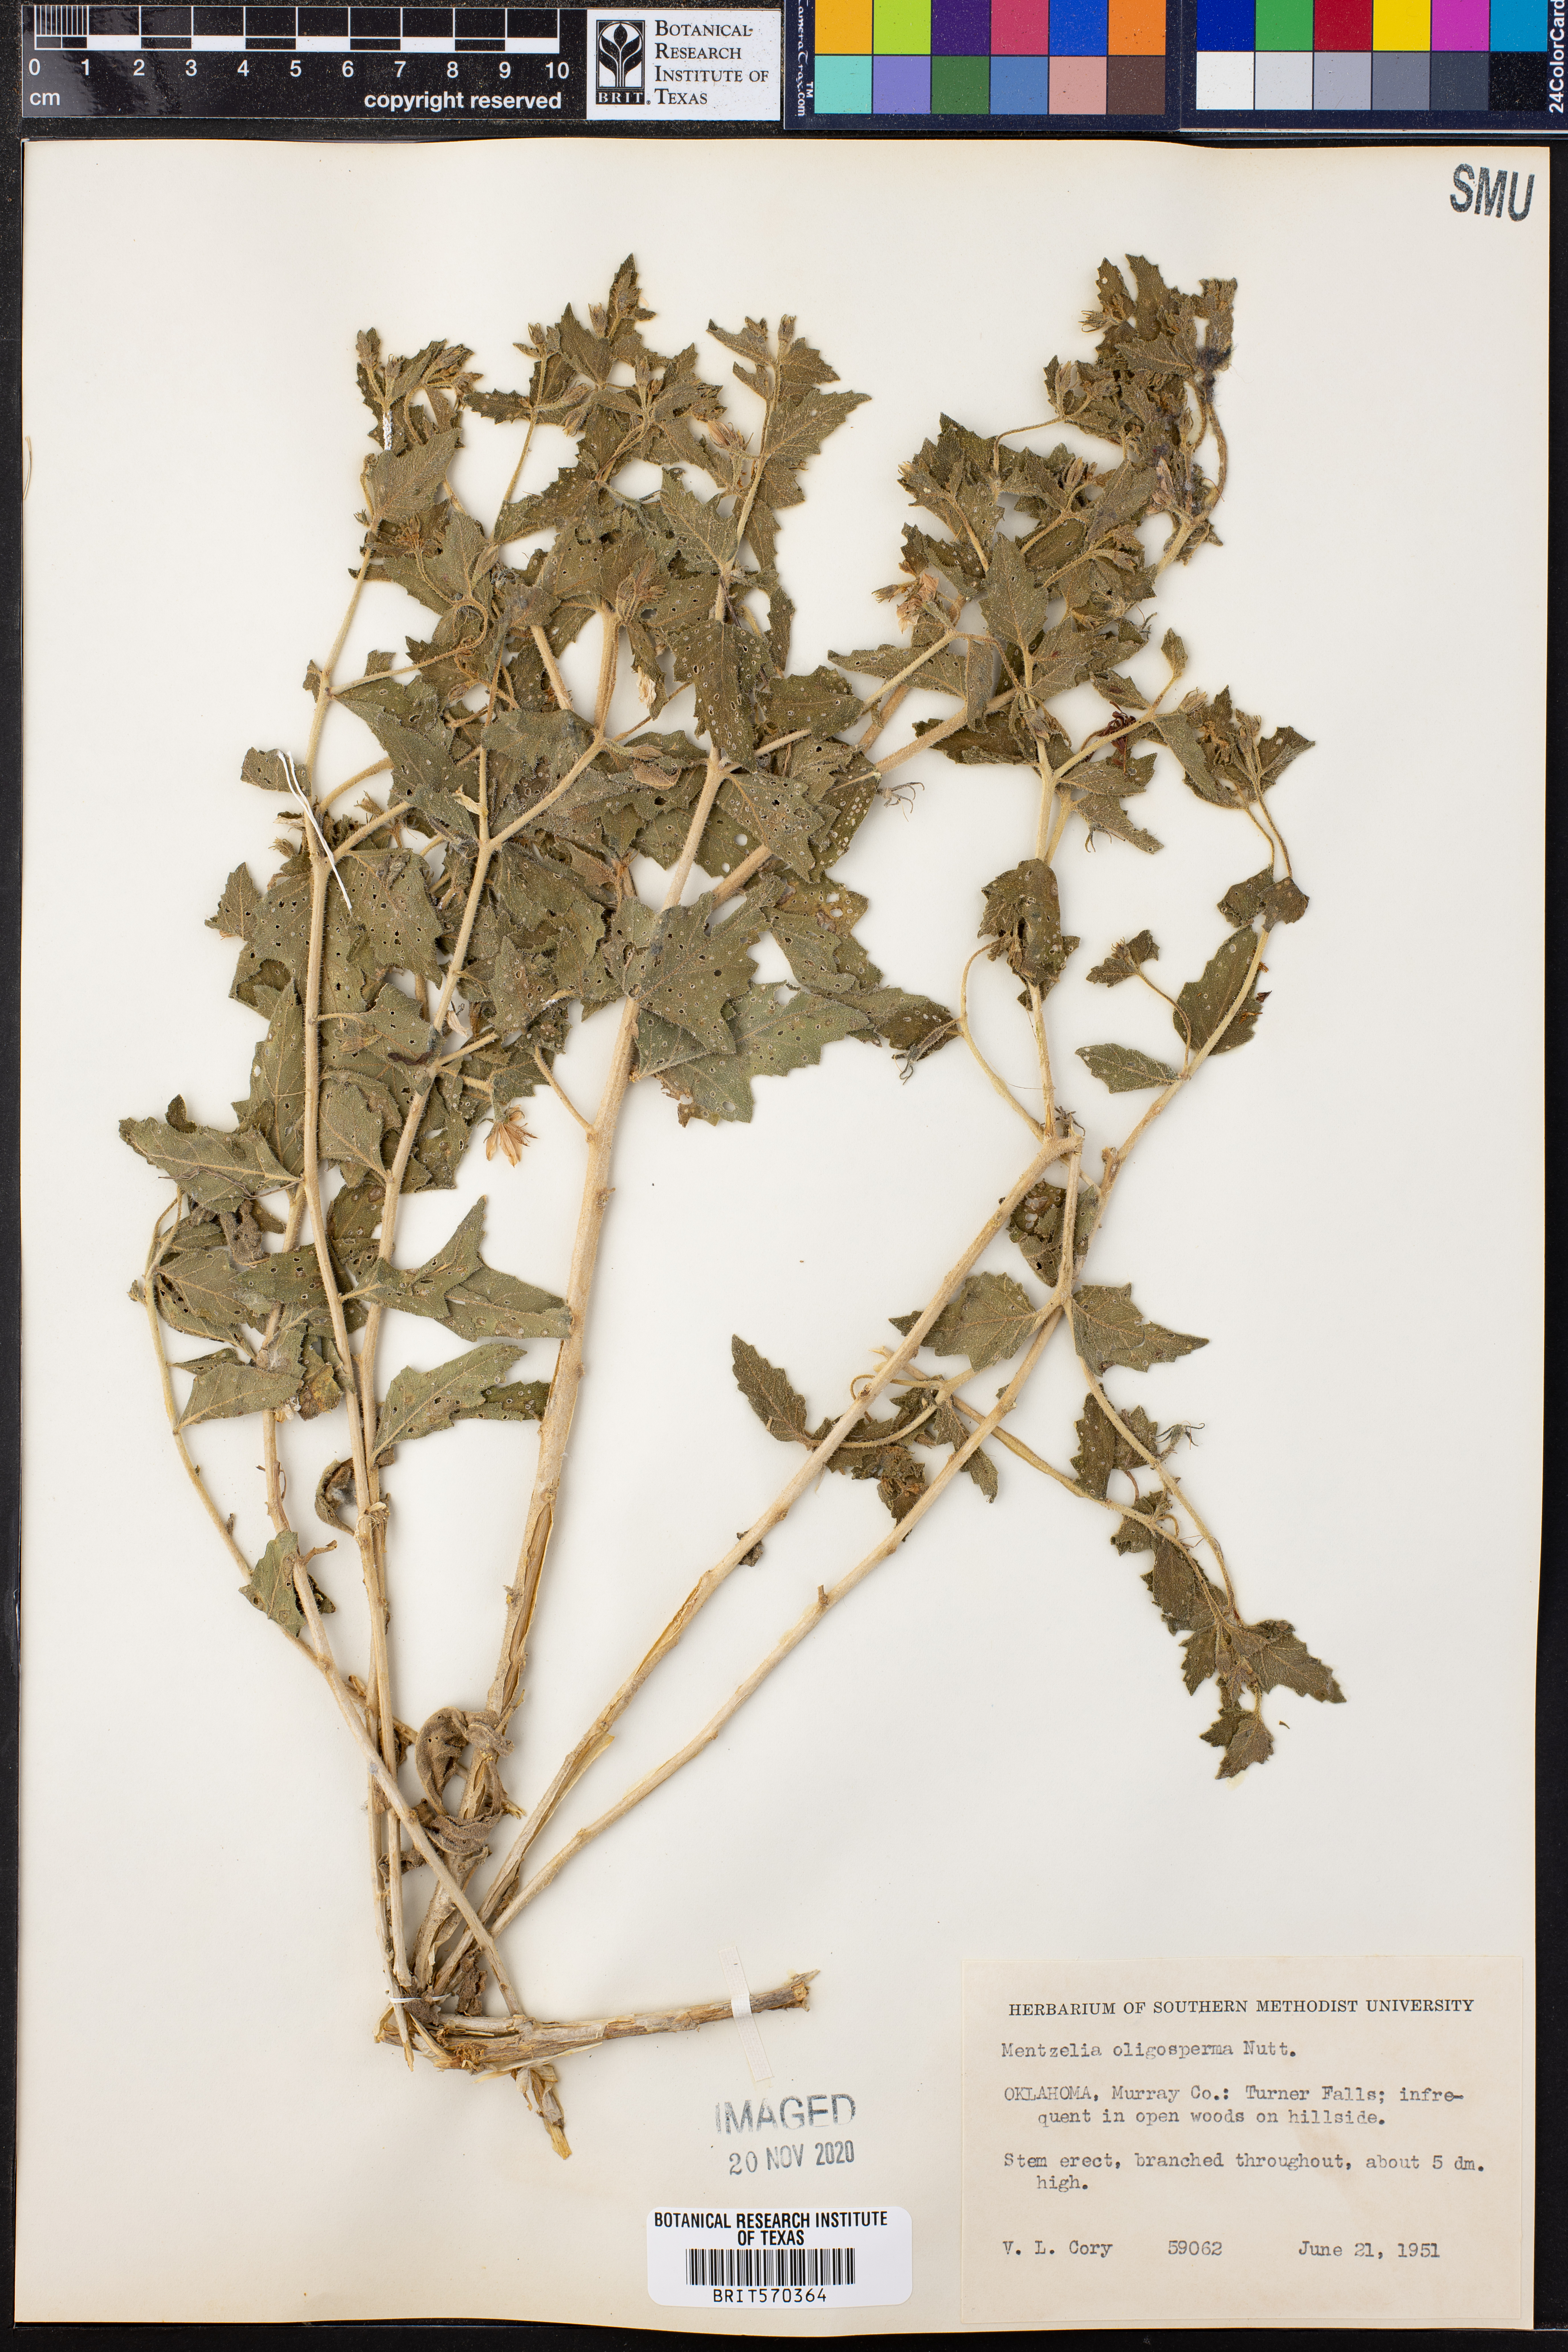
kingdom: Plantae
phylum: Tracheophyta
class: Magnoliopsida
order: Cornales
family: Loasaceae
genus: Mentzelia
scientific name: Mentzelia oligosperma
